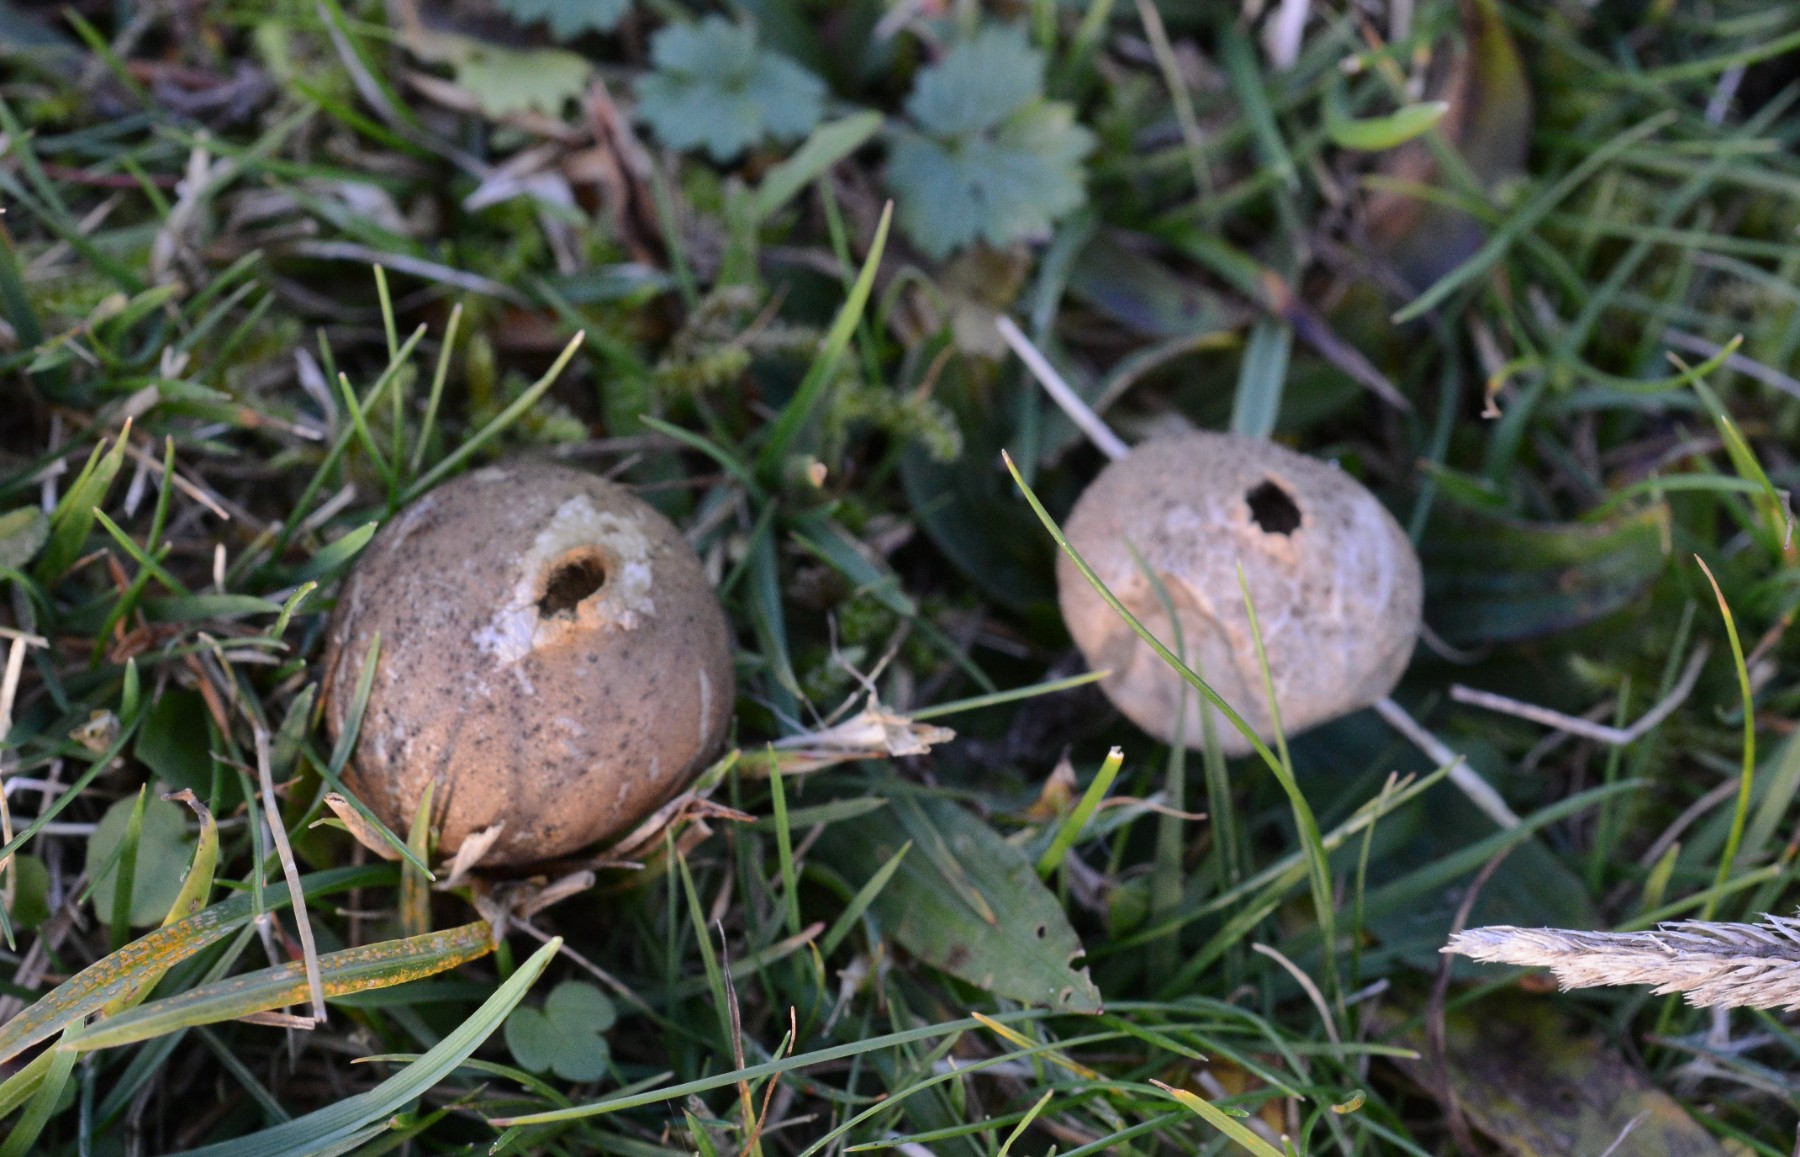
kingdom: Fungi
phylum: Basidiomycota
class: Agaricomycetes
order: Agaricales
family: Lycoperdaceae
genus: Lycoperdon
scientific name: Lycoperdon lividum
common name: mark-støvbold
